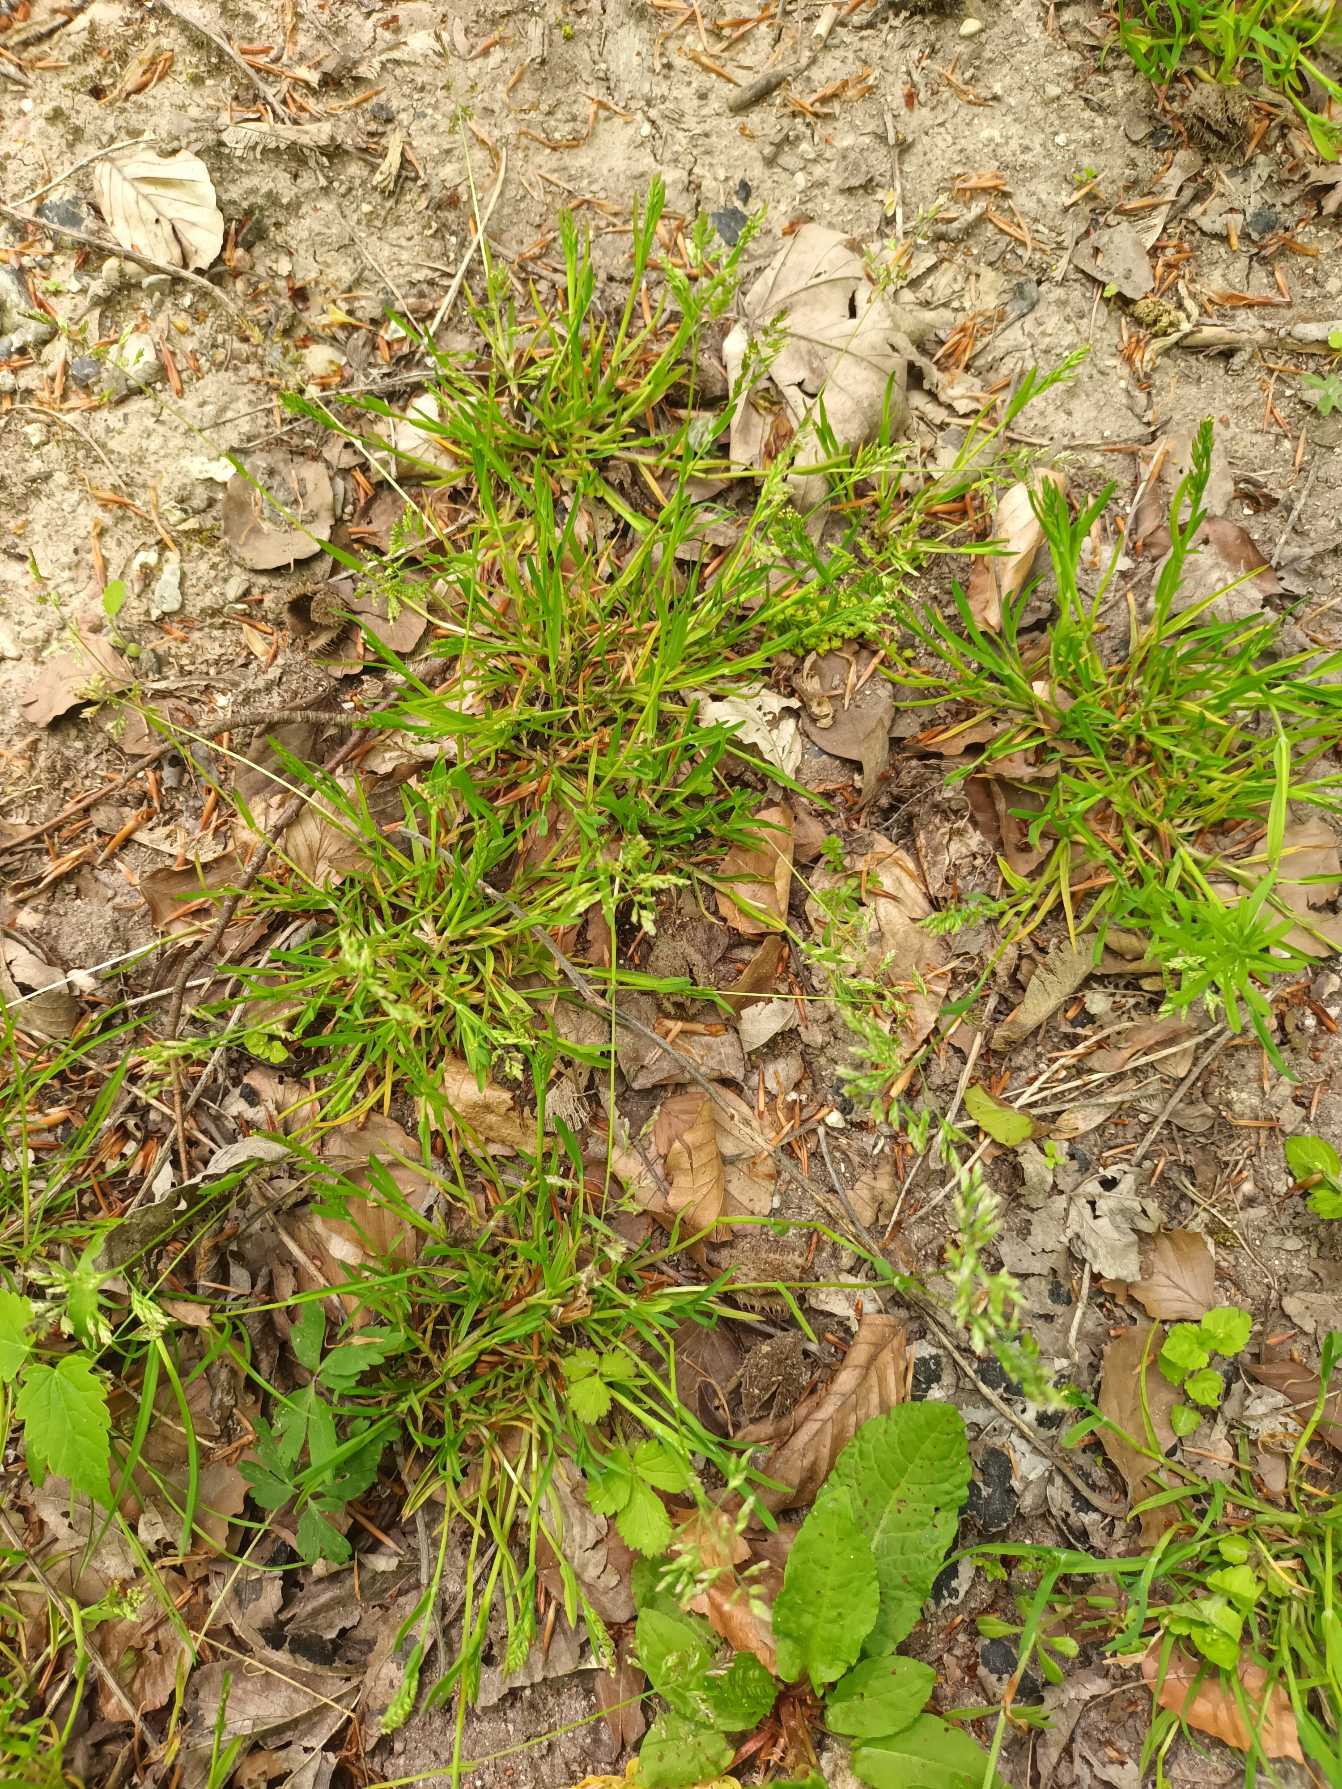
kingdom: Plantae
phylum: Tracheophyta
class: Liliopsida
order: Poales
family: Poaceae
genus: Poa
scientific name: Poa annua
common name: Enårig rapgræs
